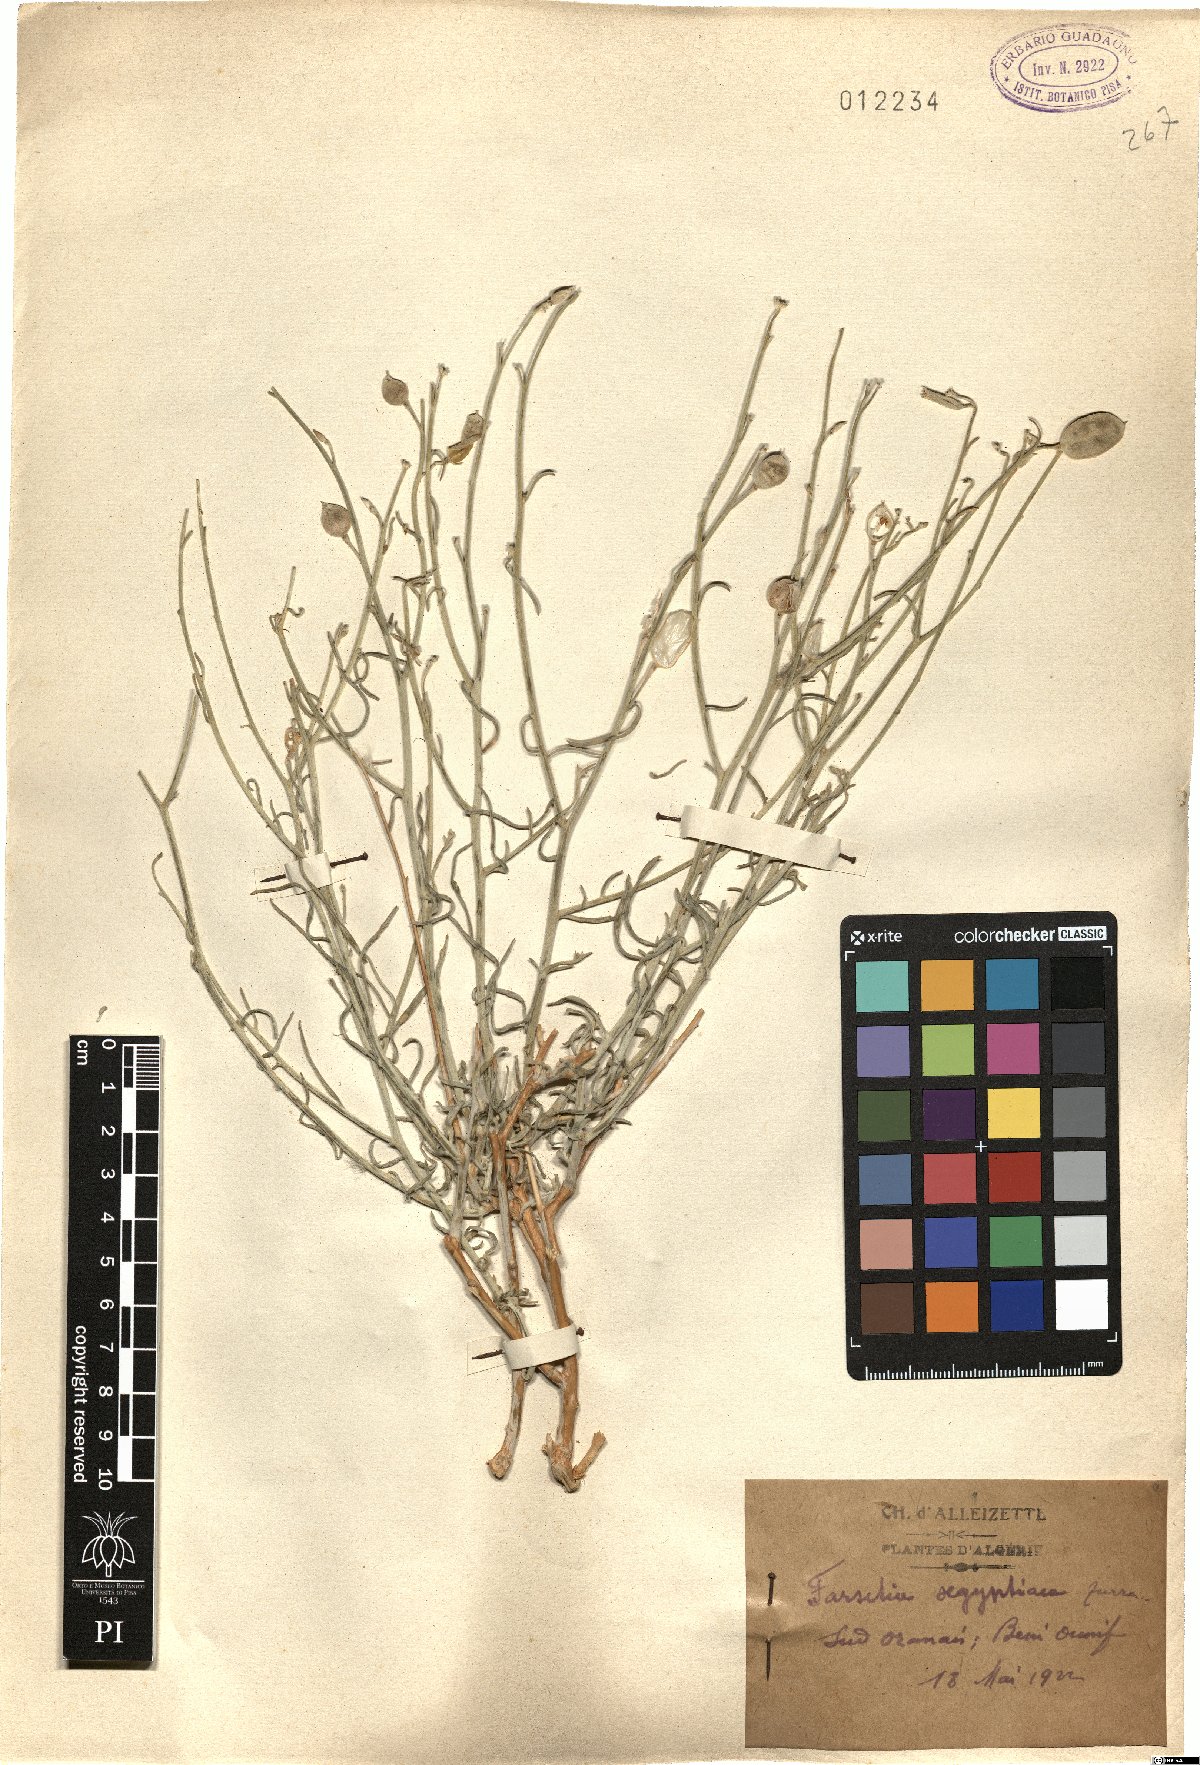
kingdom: Plantae
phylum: Tracheophyta
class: Magnoliopsida
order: Brassicales
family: Brassicaceae
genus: Farsetia
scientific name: Farsetia aegyptia
